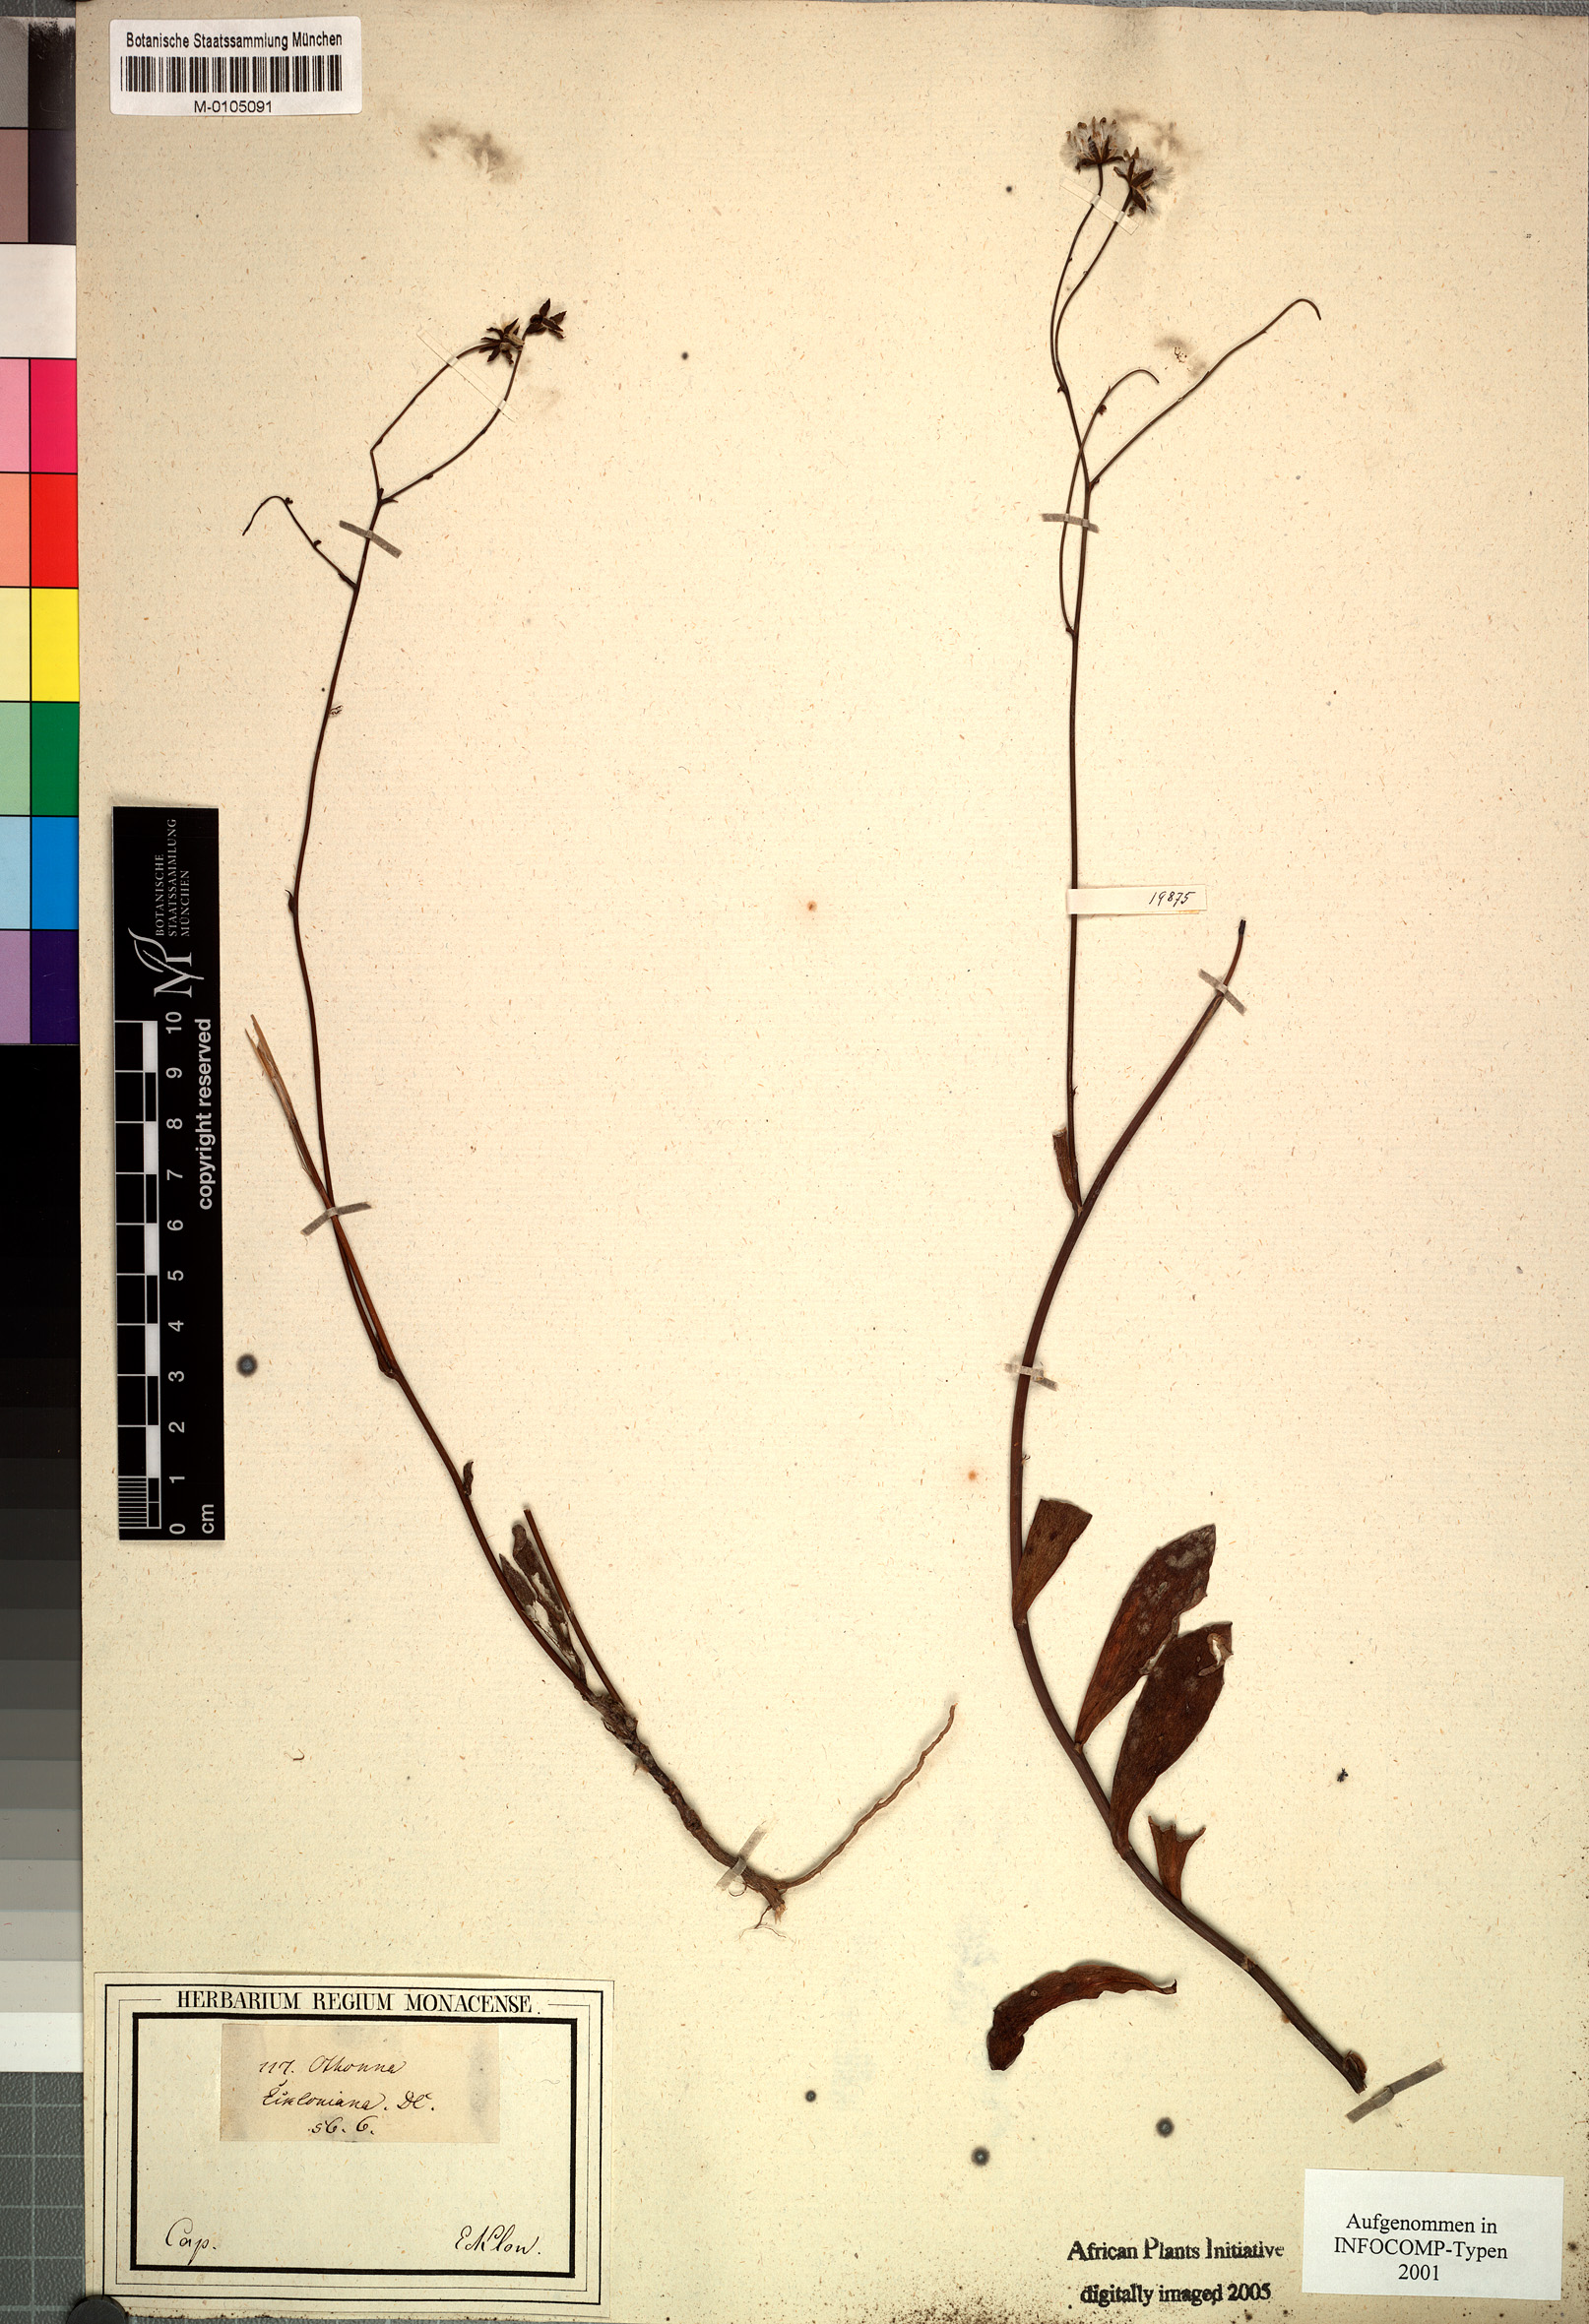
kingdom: Plantae
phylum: Tracheophyta
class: Magnoliopsida
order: Asterales
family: Asteraceae
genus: Othonna
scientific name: Othonna parviflora
